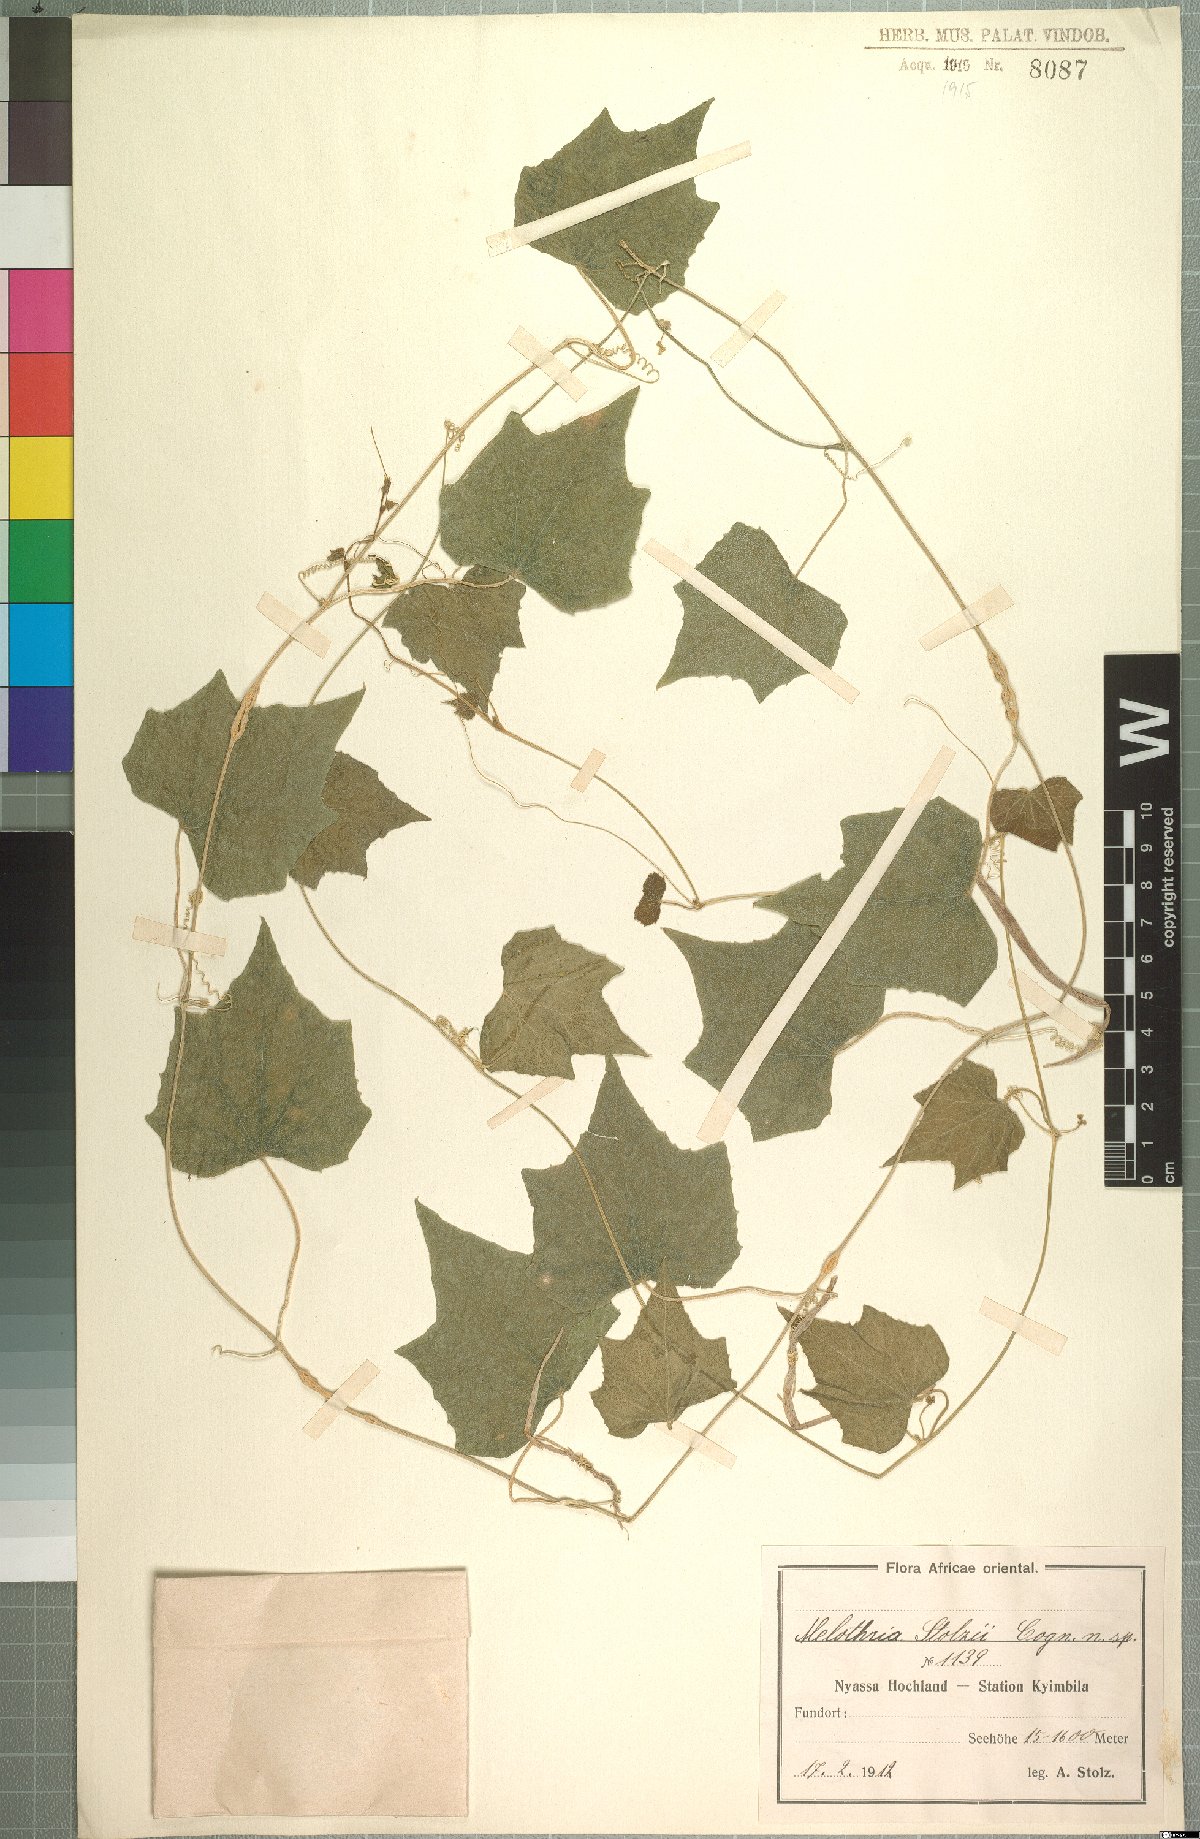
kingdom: Plantae
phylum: Tracheophyta
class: Magnoliopsida
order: Cucurbitales
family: Cucurbitaceae
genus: Zehneria
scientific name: Zehneria minutiflora
